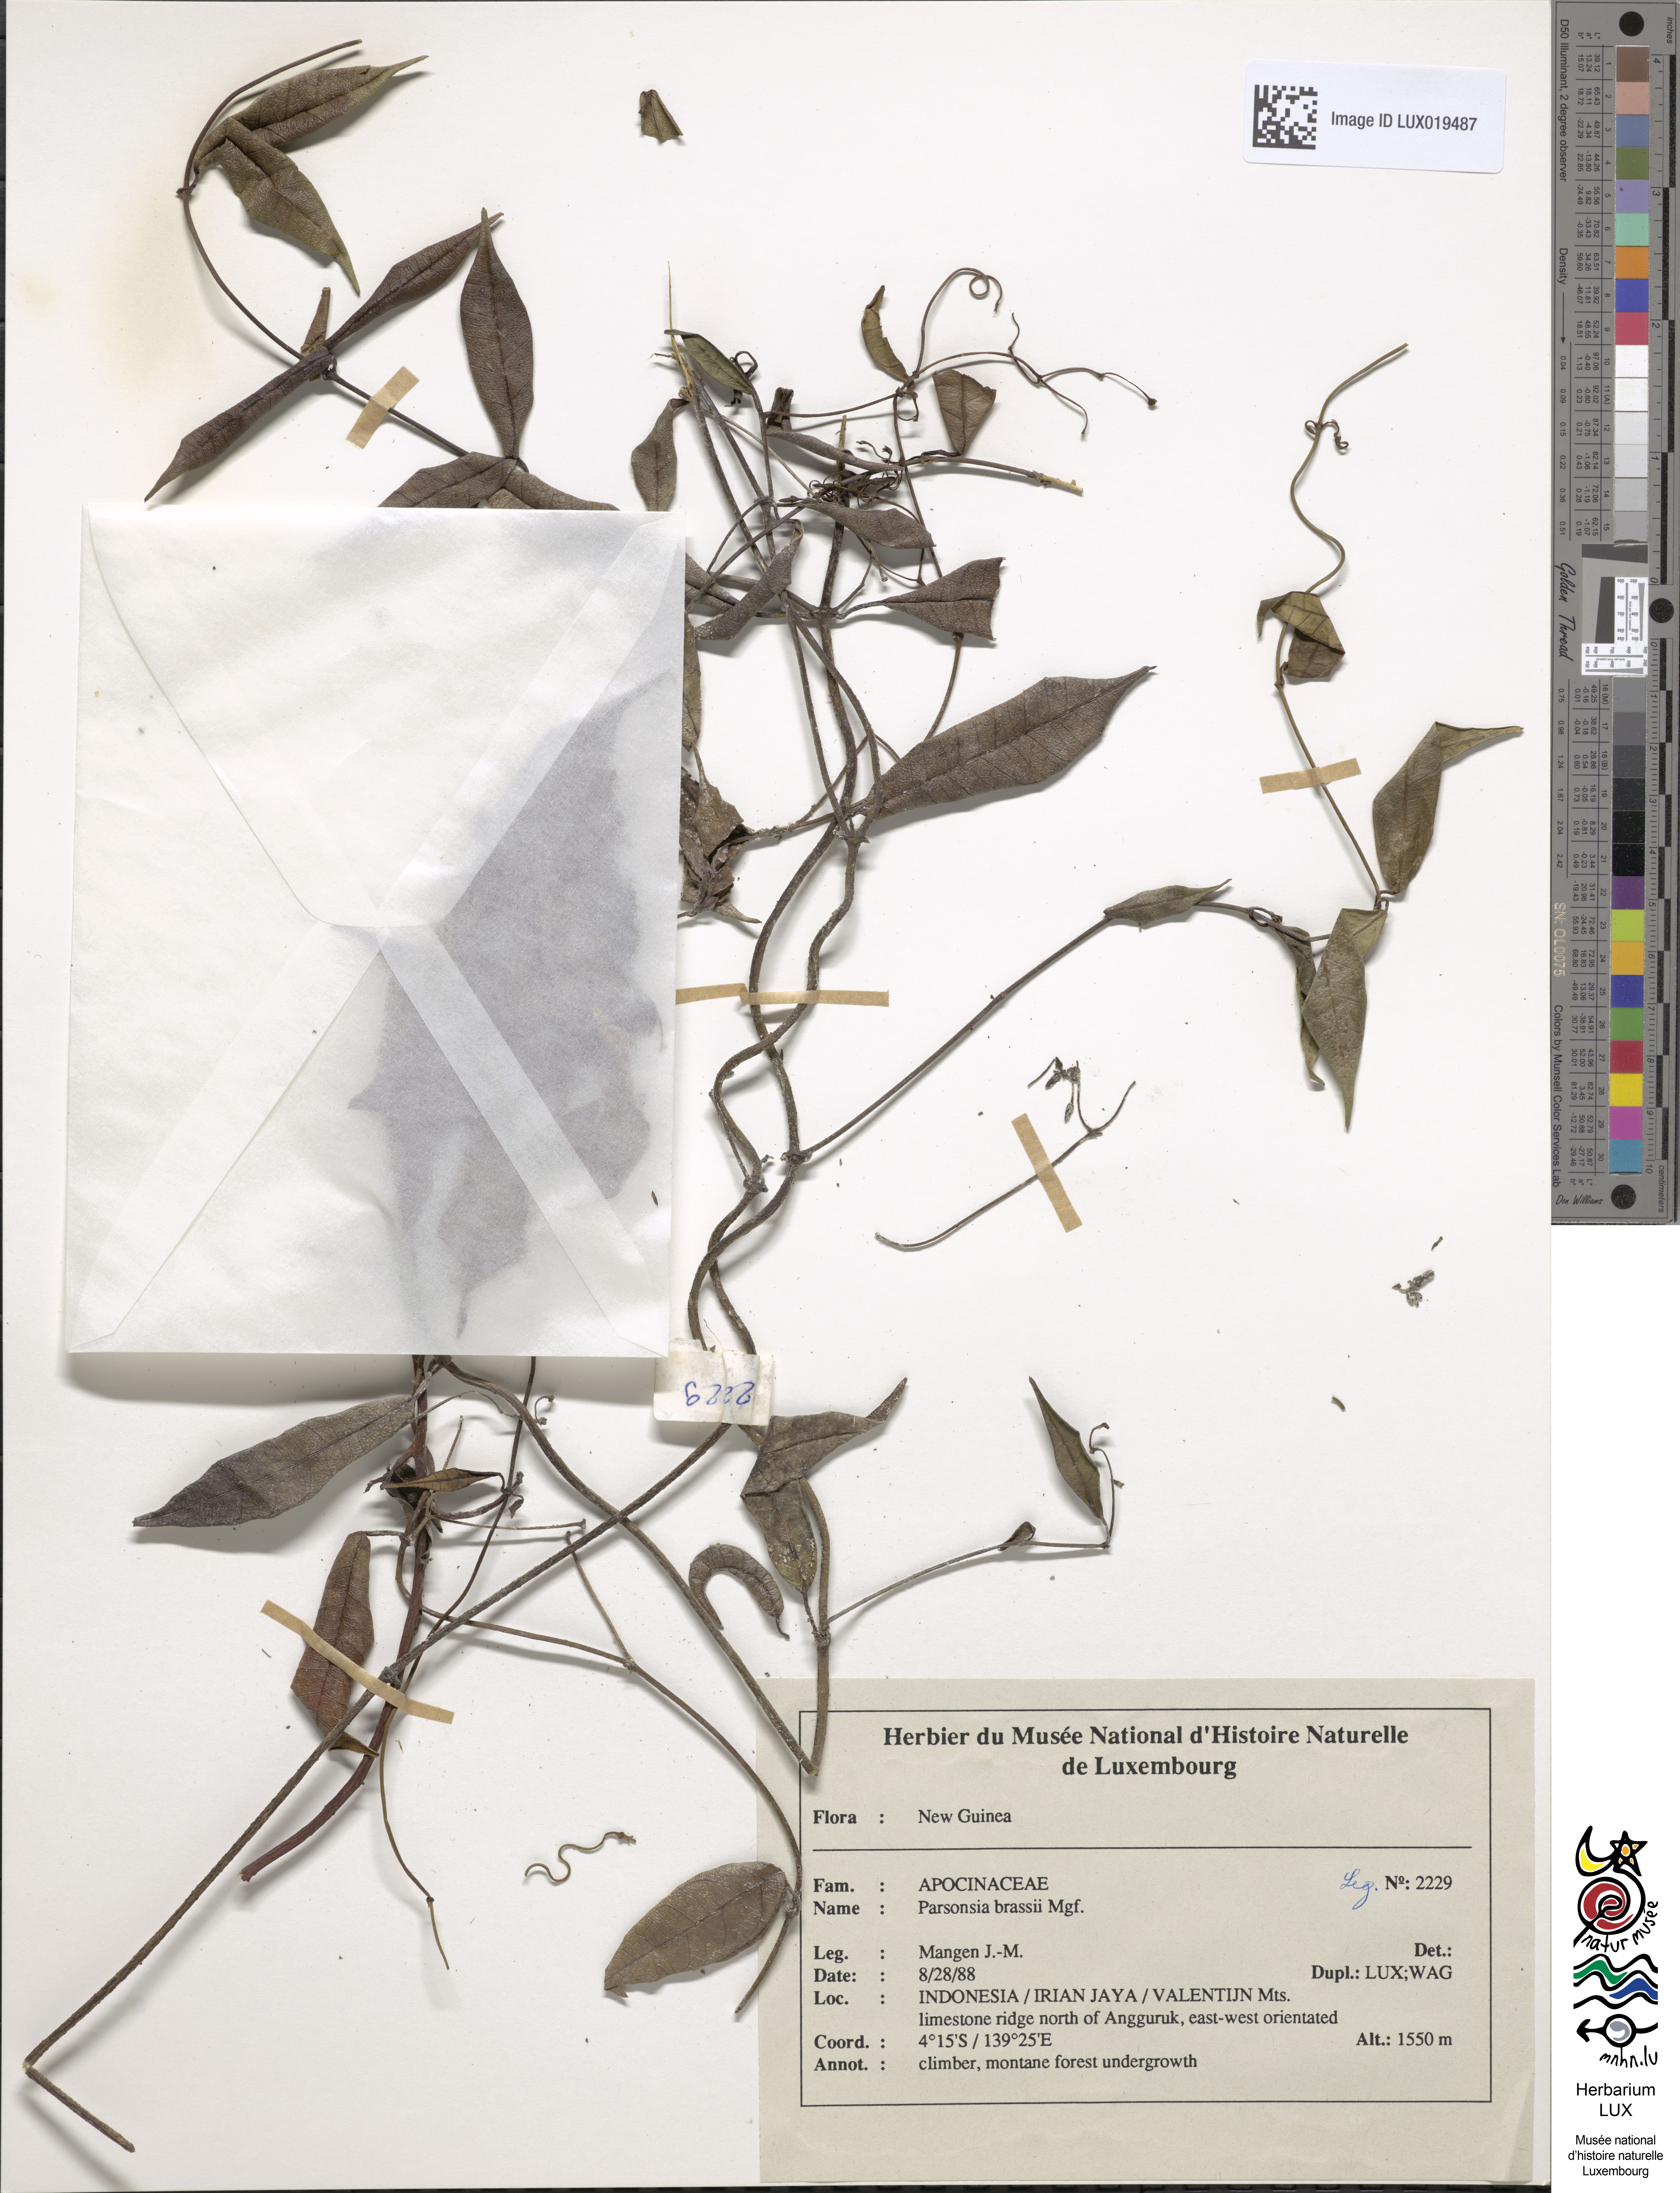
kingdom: Plantae
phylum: Tracheophyta
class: Magnoliopsida
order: Gentianales
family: Apocynaceae
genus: Parsonsia
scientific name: Parsonsia sanguinea
